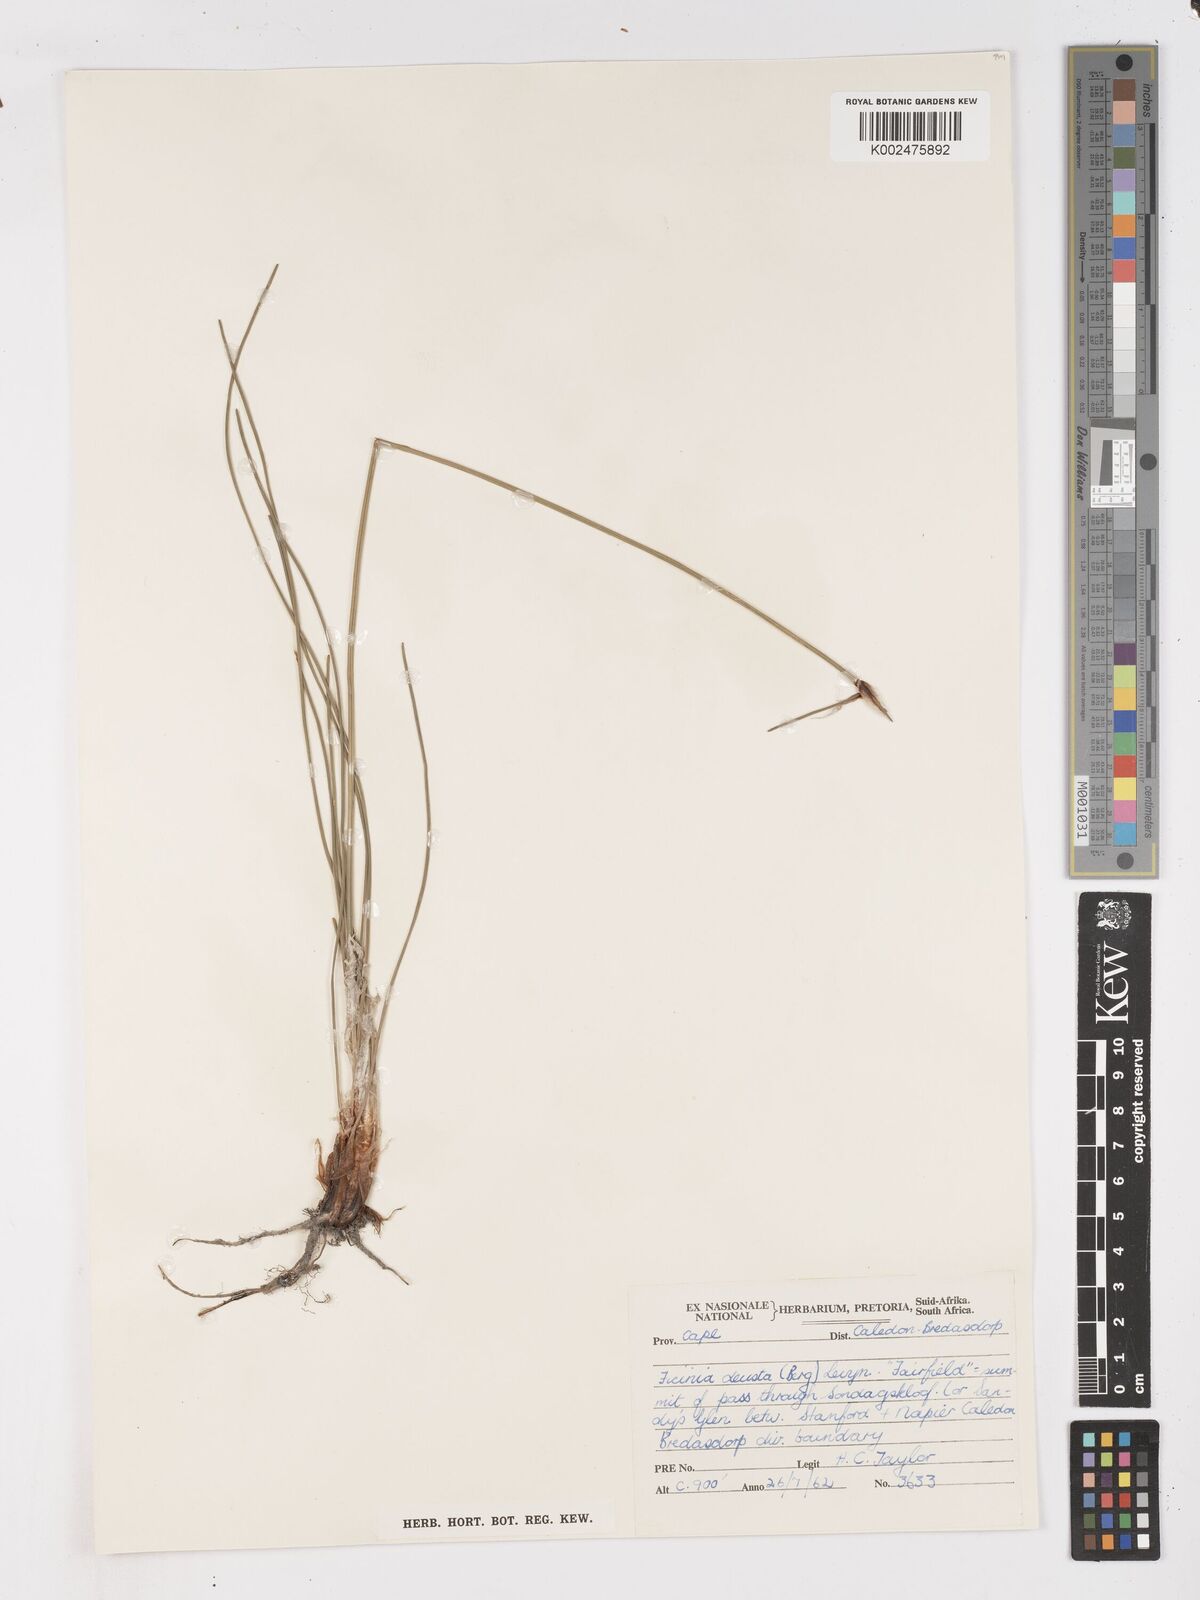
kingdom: Plantae
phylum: Tracheophyta
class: Liliopsida
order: Poales
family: Cyperaceae
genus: Ficinia
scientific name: Ficinia deusta
